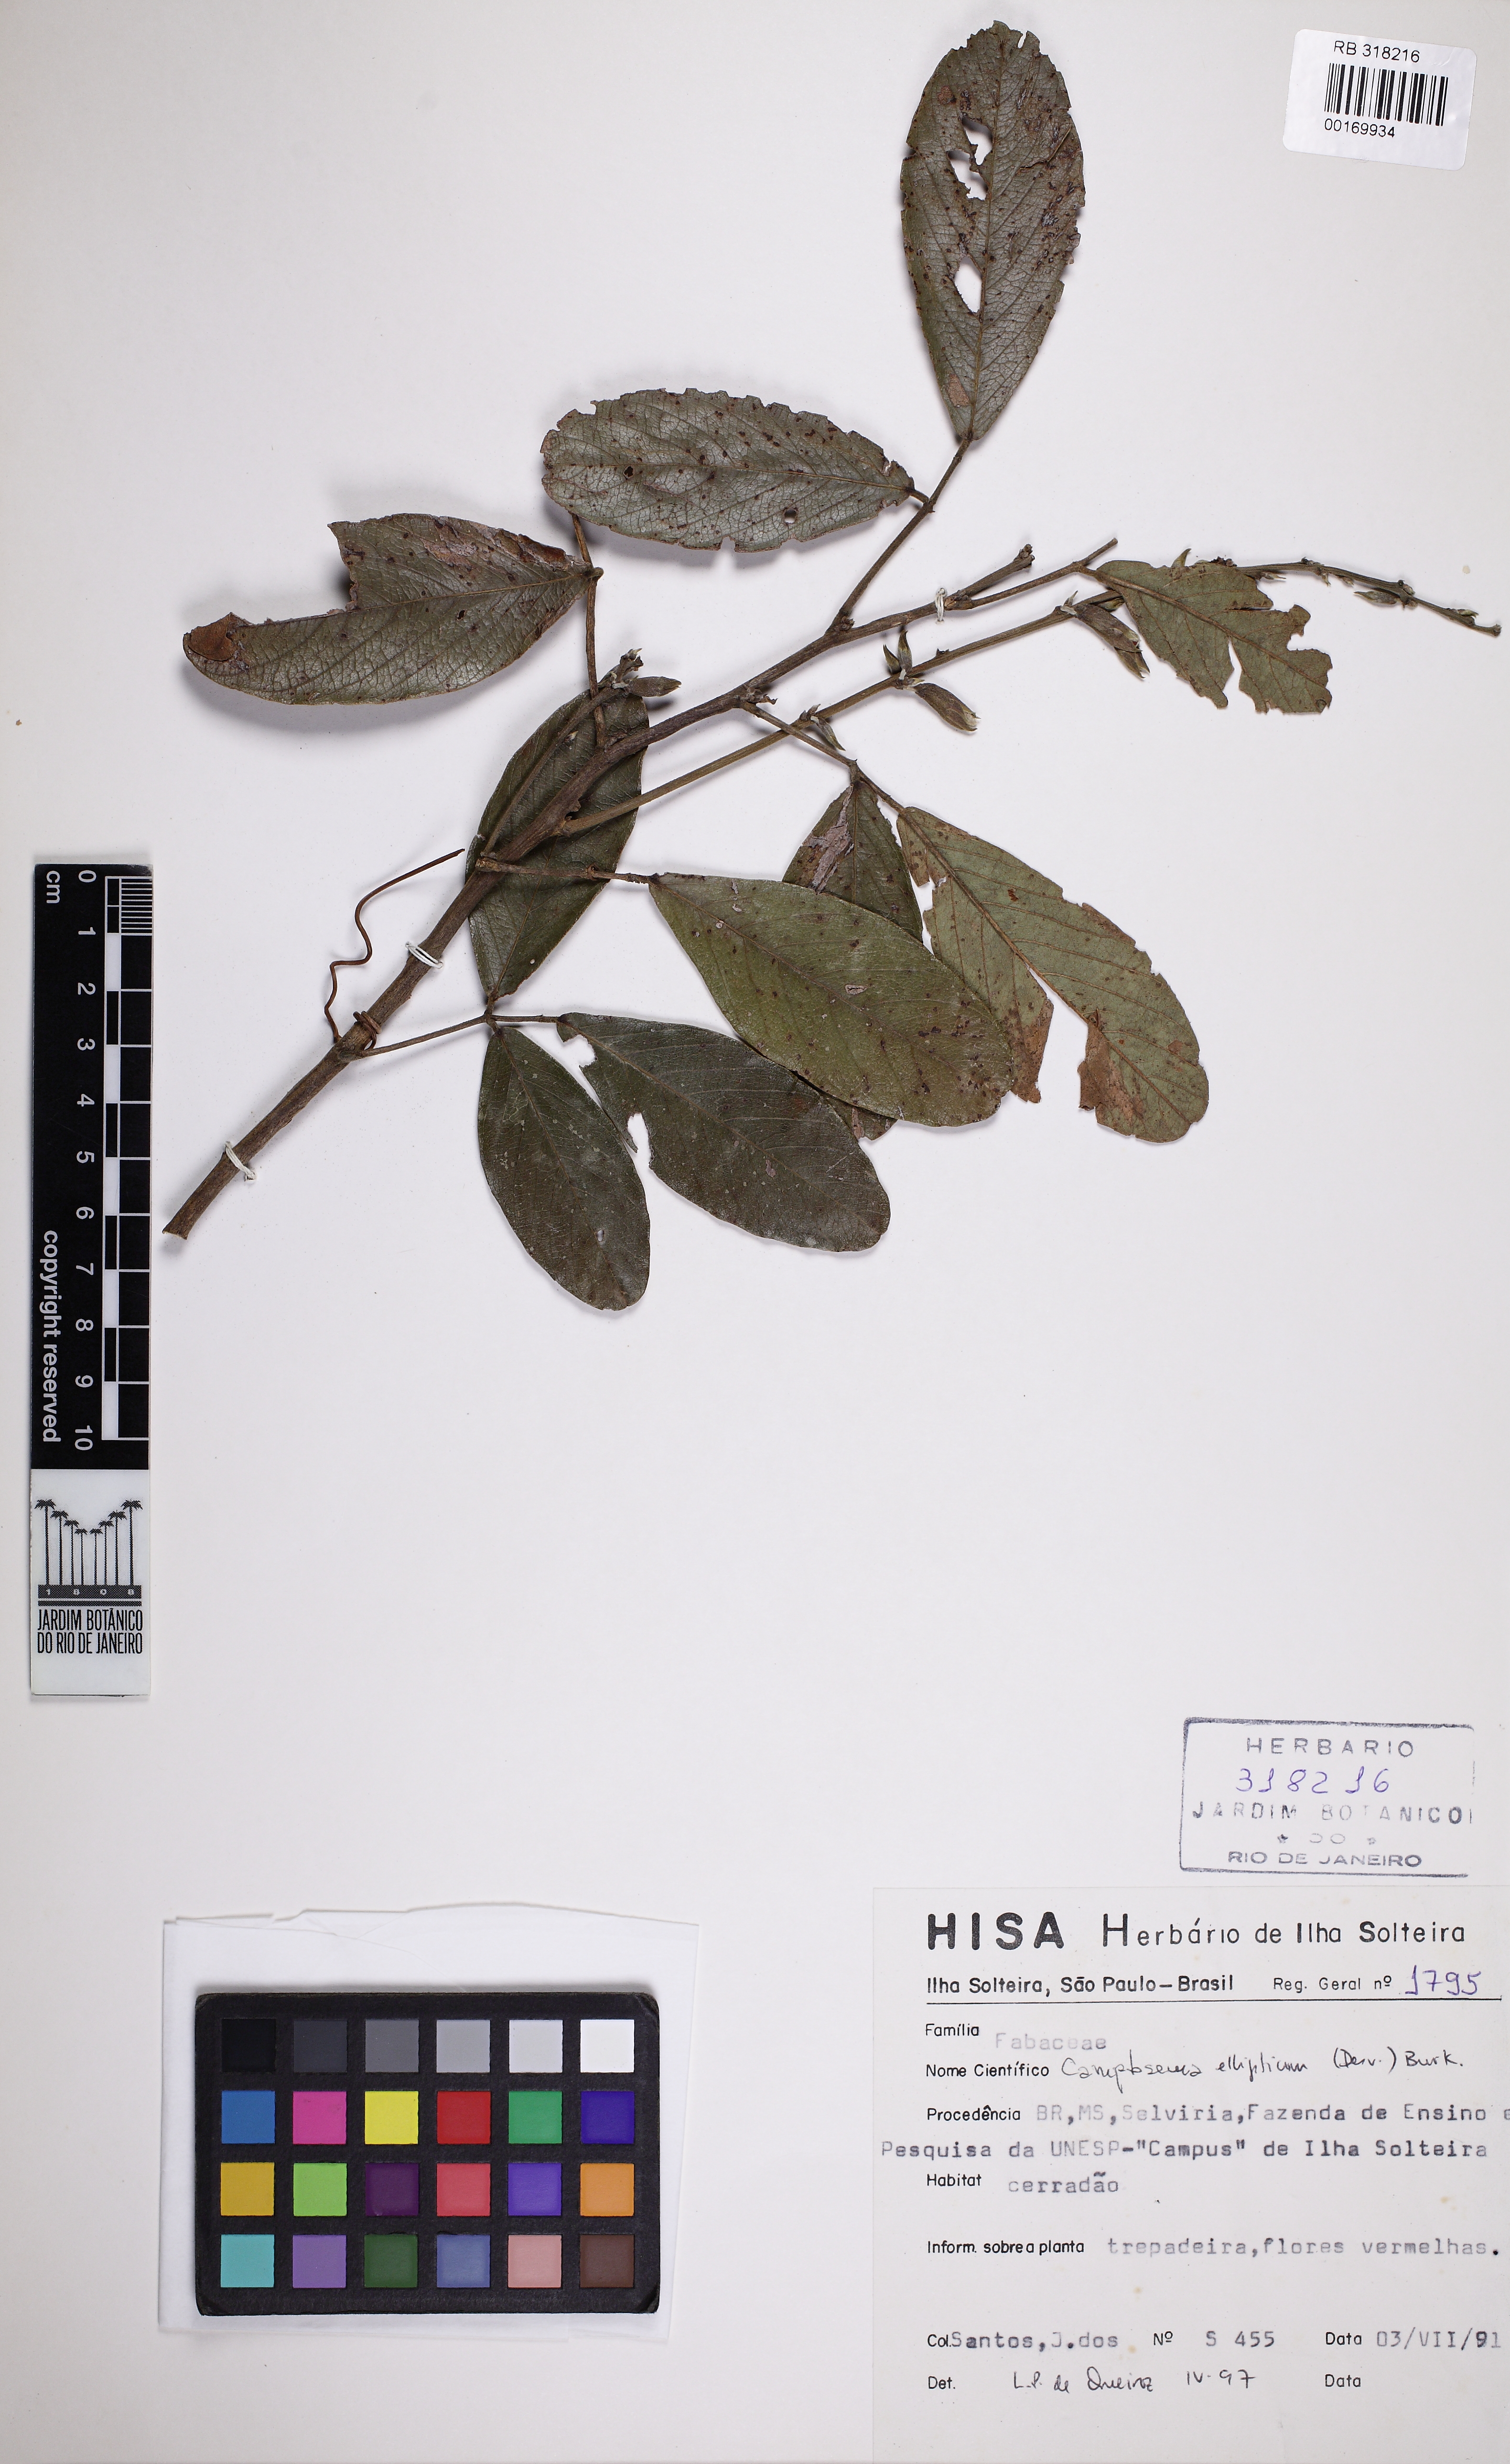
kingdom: Plantae
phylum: Tracheophyta
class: Magnoliopsida
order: Fabales
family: Fabaceae
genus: Cerradicola
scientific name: Cerradicola elliptica
